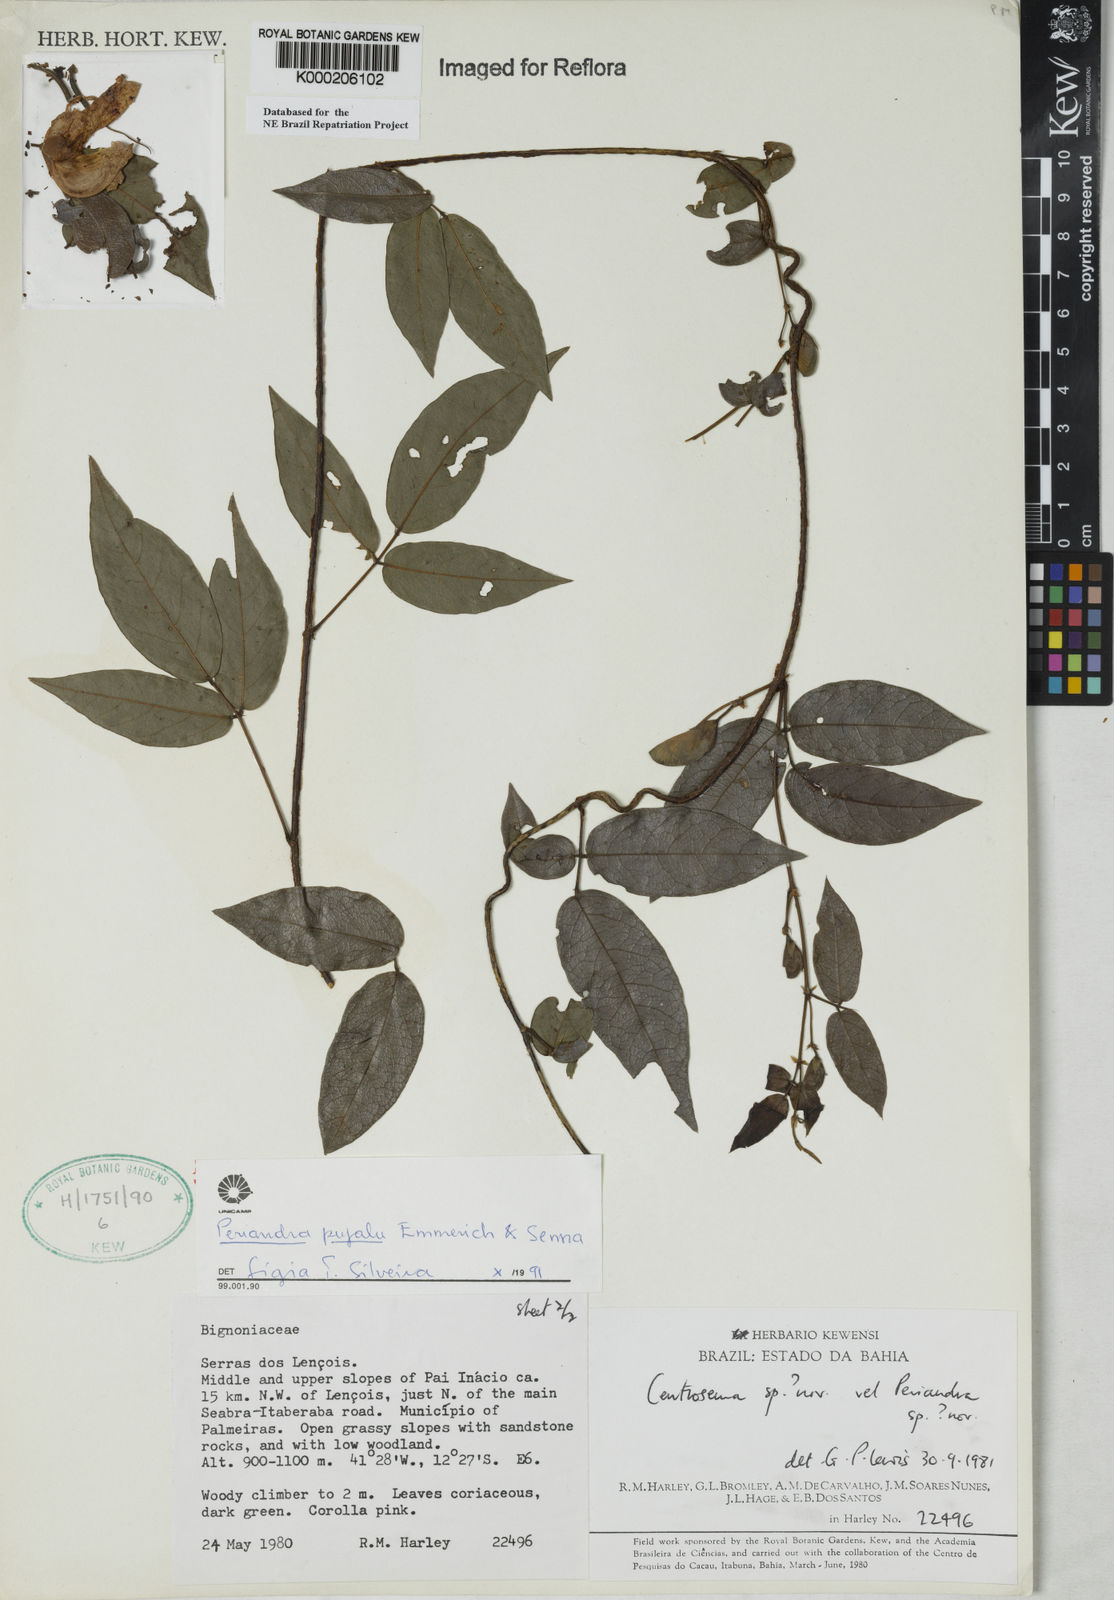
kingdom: Plantae
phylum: Tracheophyta
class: Magnoliopsida
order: Fabales
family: Fabaceae
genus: Periandra
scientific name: Periandra pujalu
